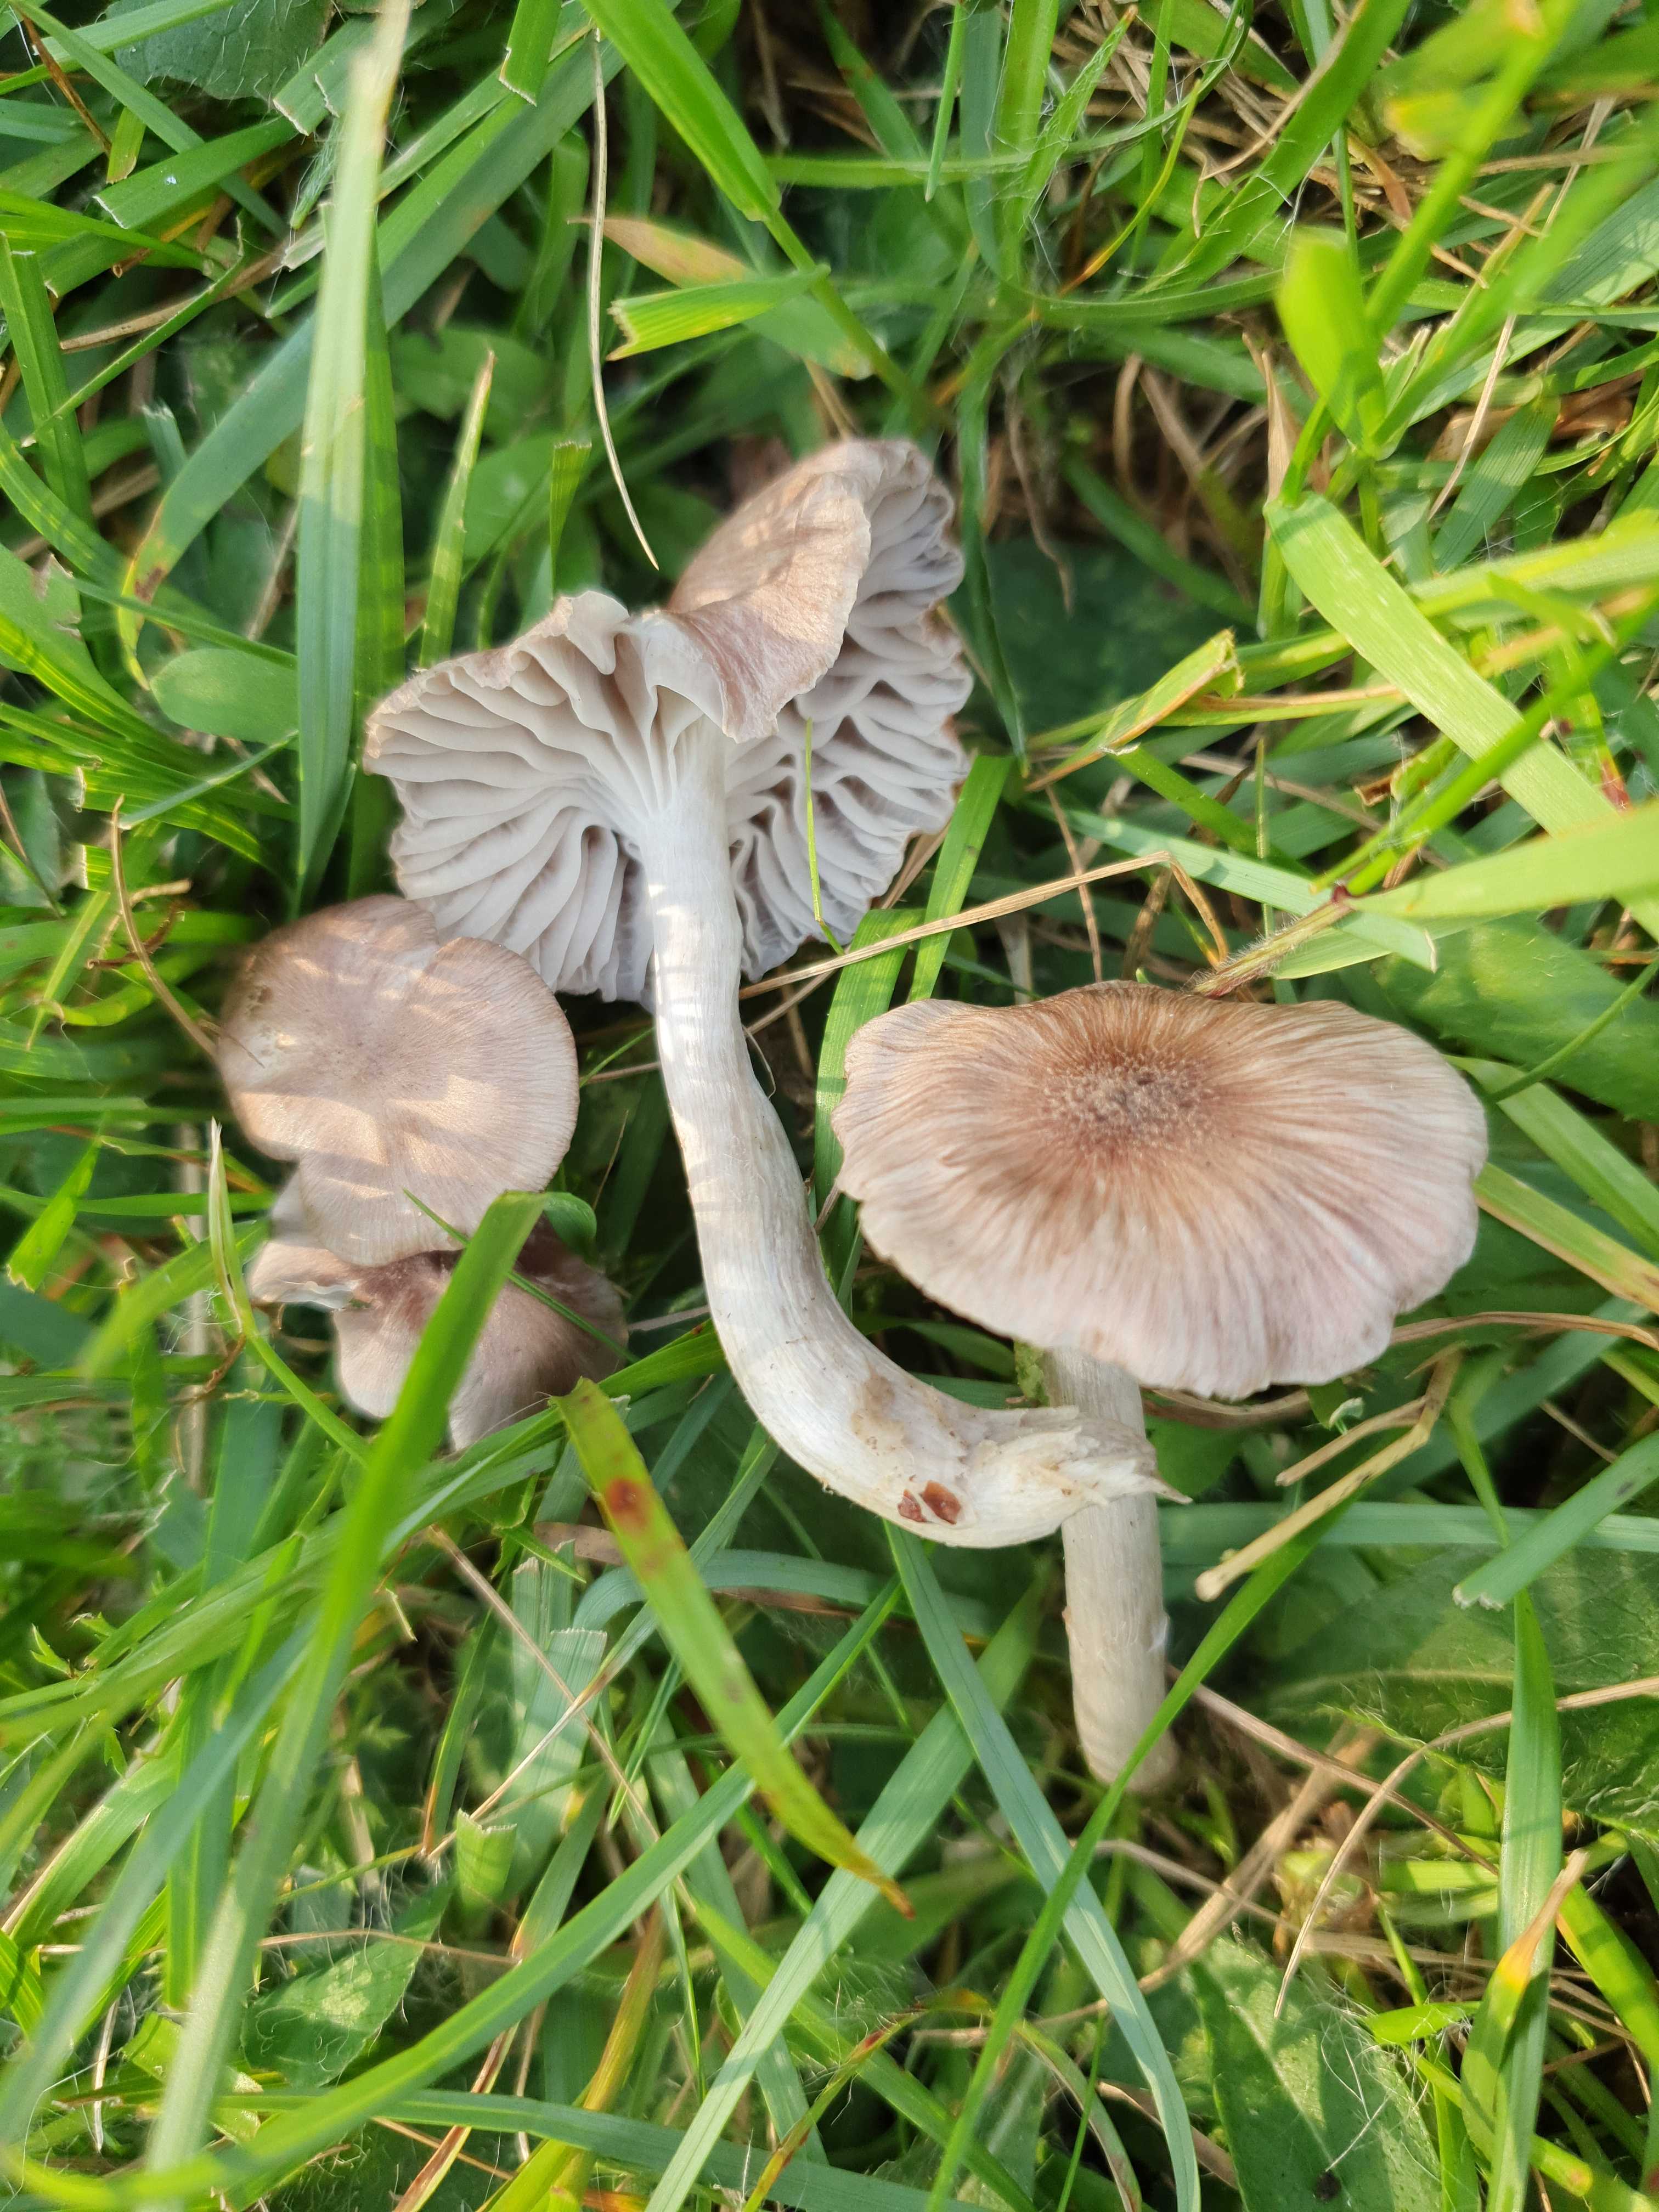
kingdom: Fungi
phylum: Basidiomycota
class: Agaricomycetes
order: Agaricales
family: Hygrophoraceae
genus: Cuphophyllus
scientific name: Cuphophyllus flavipes
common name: gulfodet vokshat
